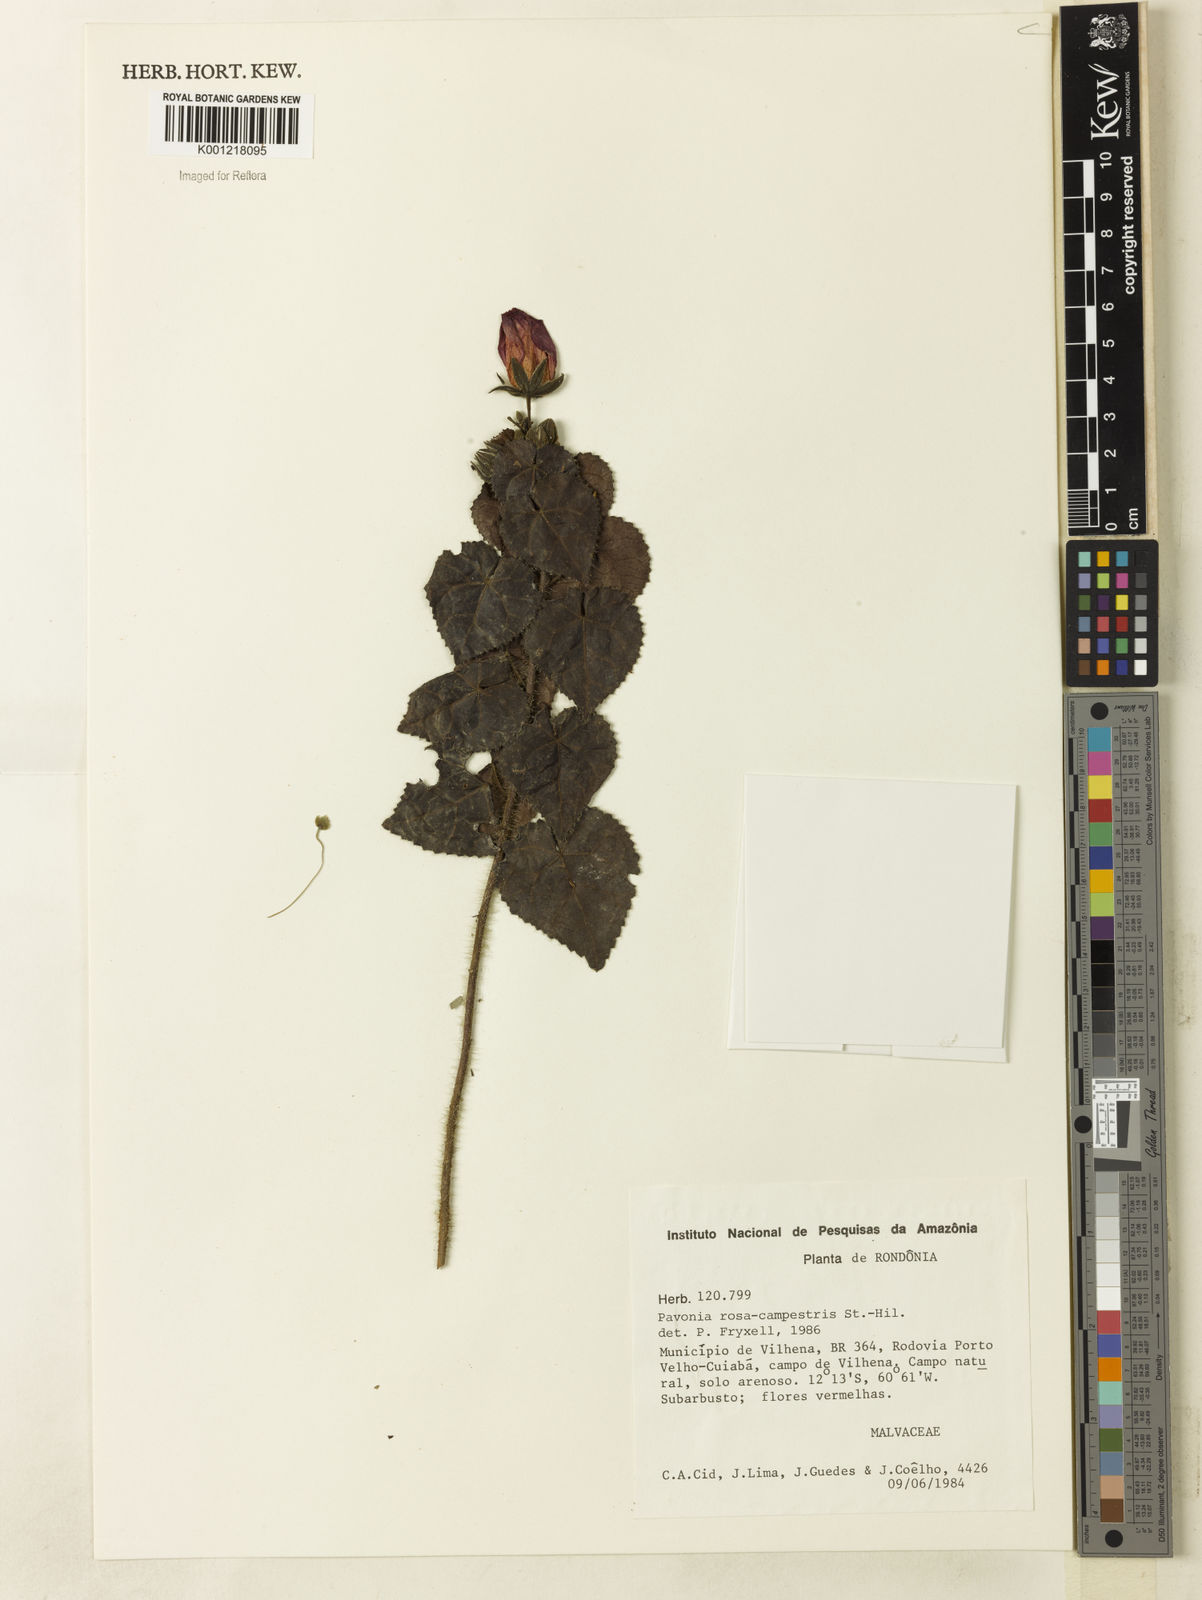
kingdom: Plantae
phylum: Tracheophyta
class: Magnoliopsida
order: Malvales
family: Malvaceae
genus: Pavonia
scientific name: Pavonia rosa-campestris
